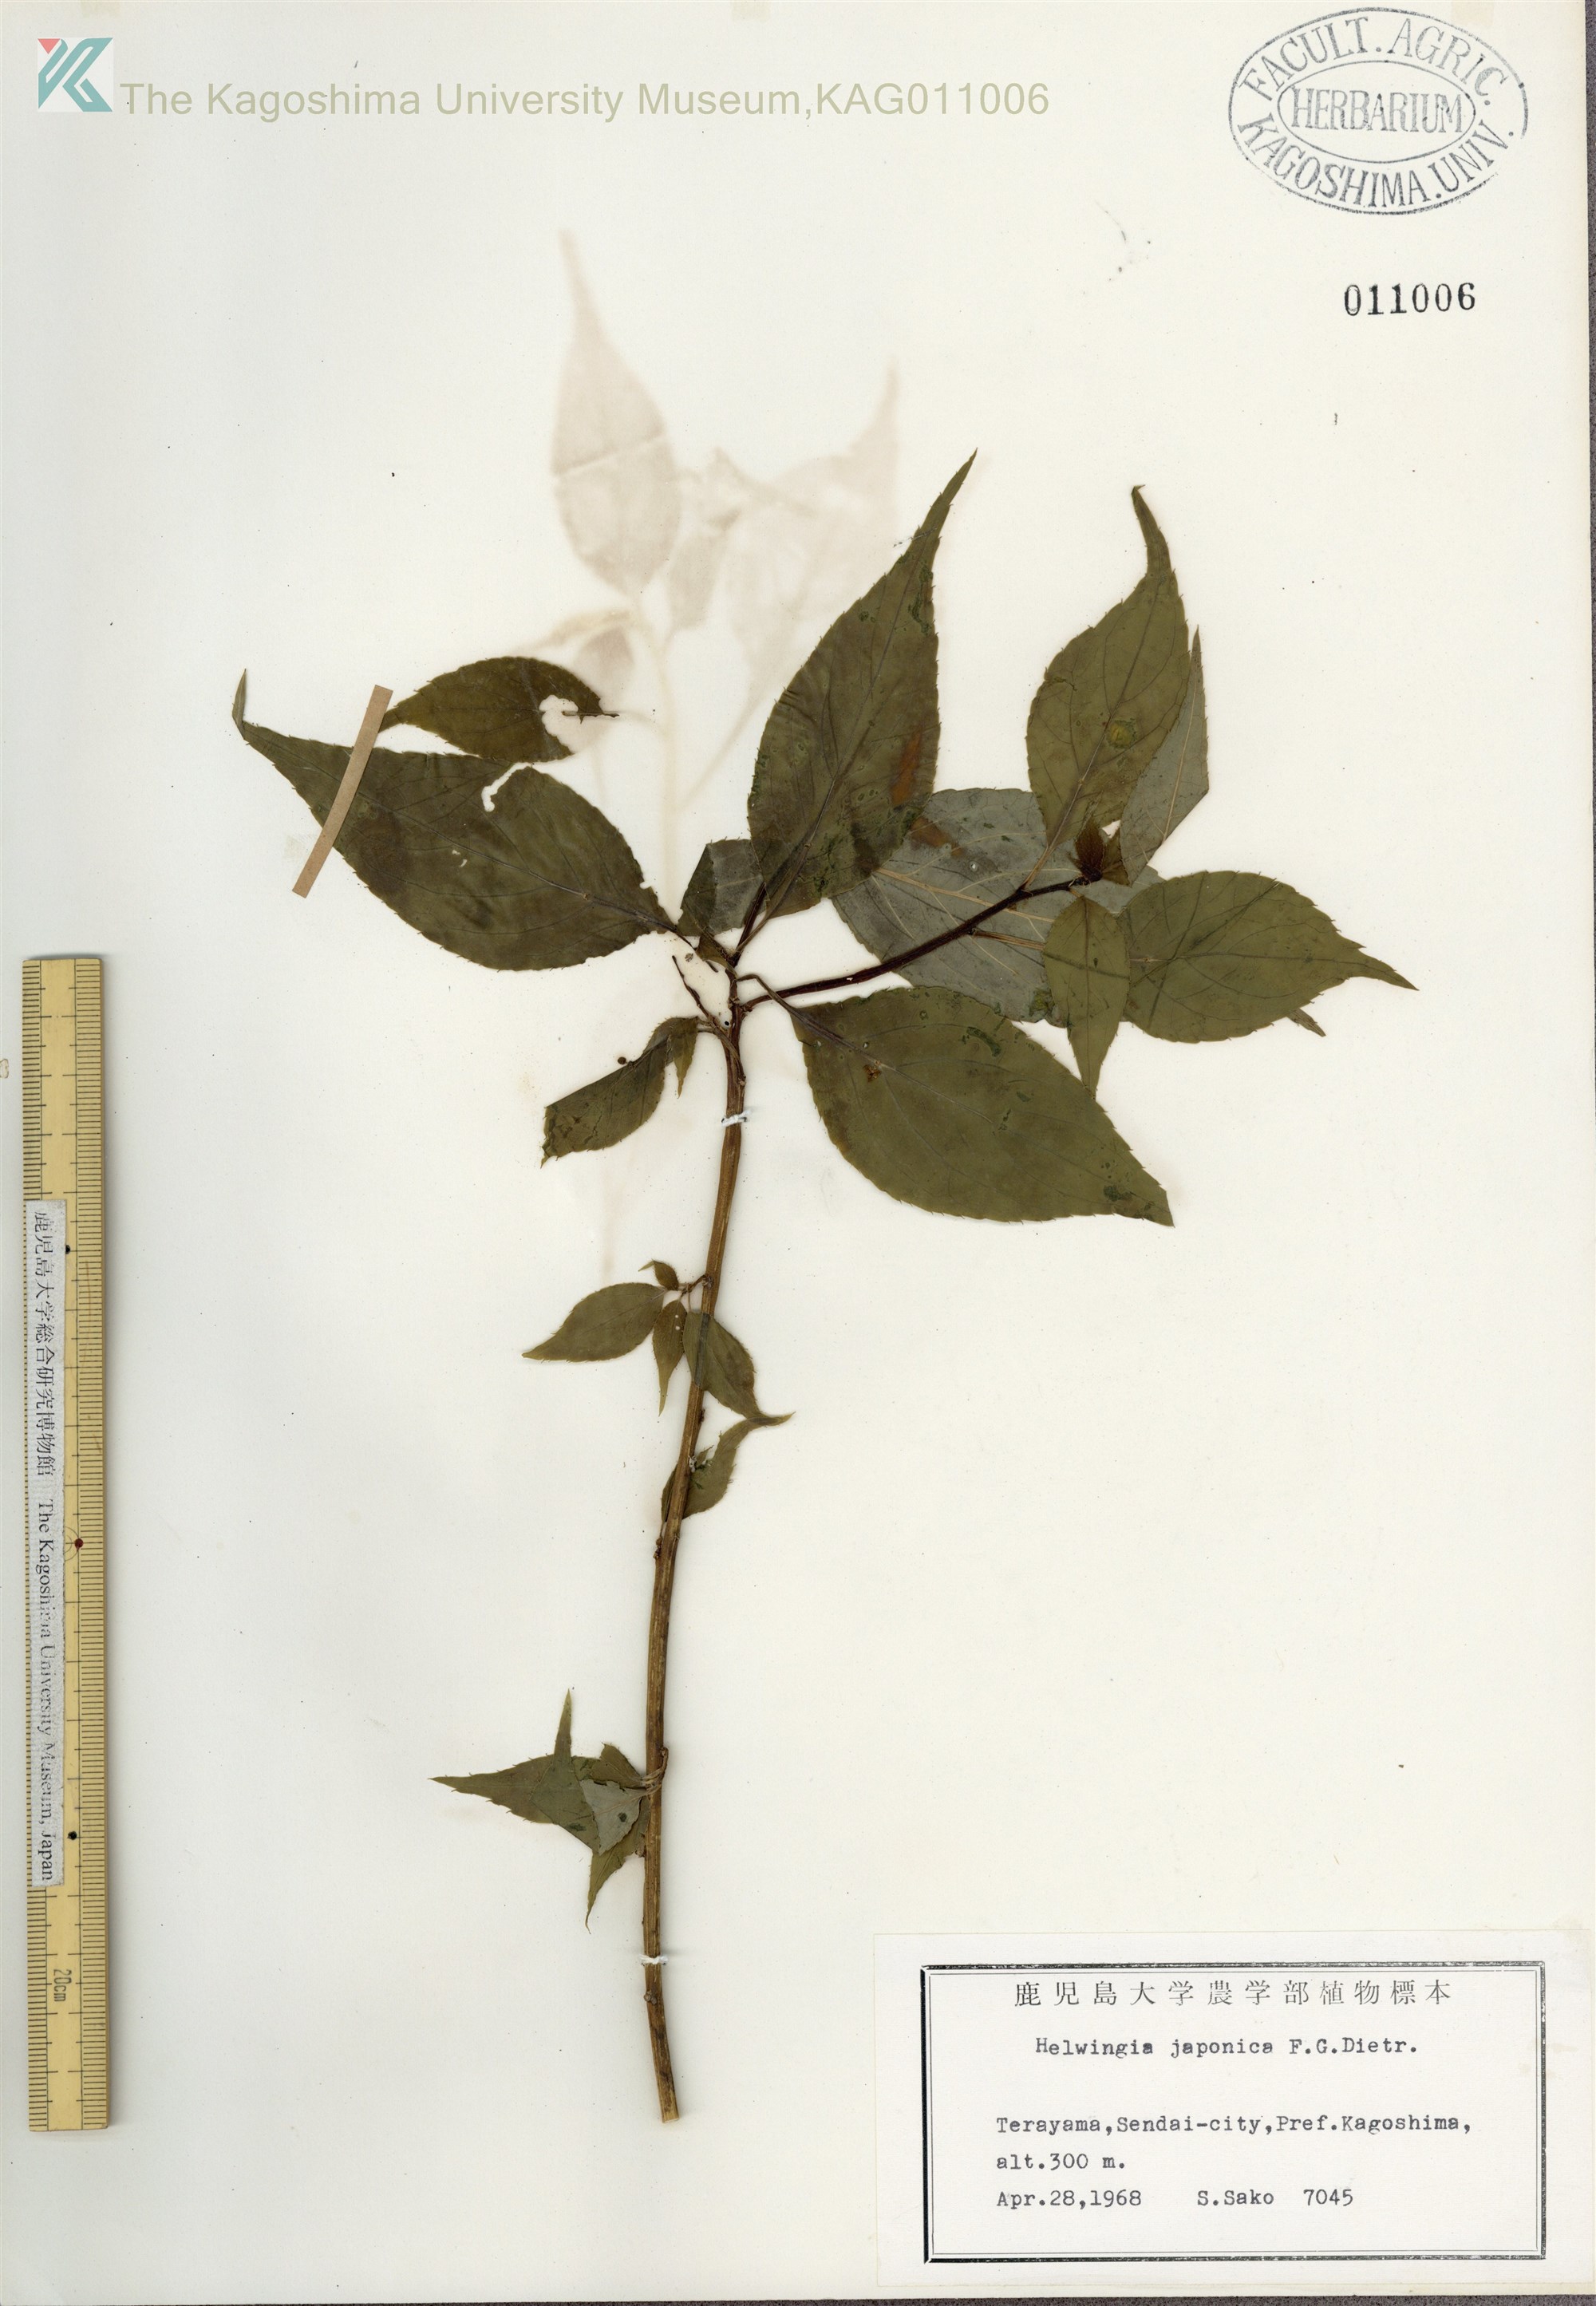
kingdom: Plantae
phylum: Tracheophyta
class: Magnoliopsida
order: Aquifoliales
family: Helwingiaceae
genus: Helwingia
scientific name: Helwingia japonica
